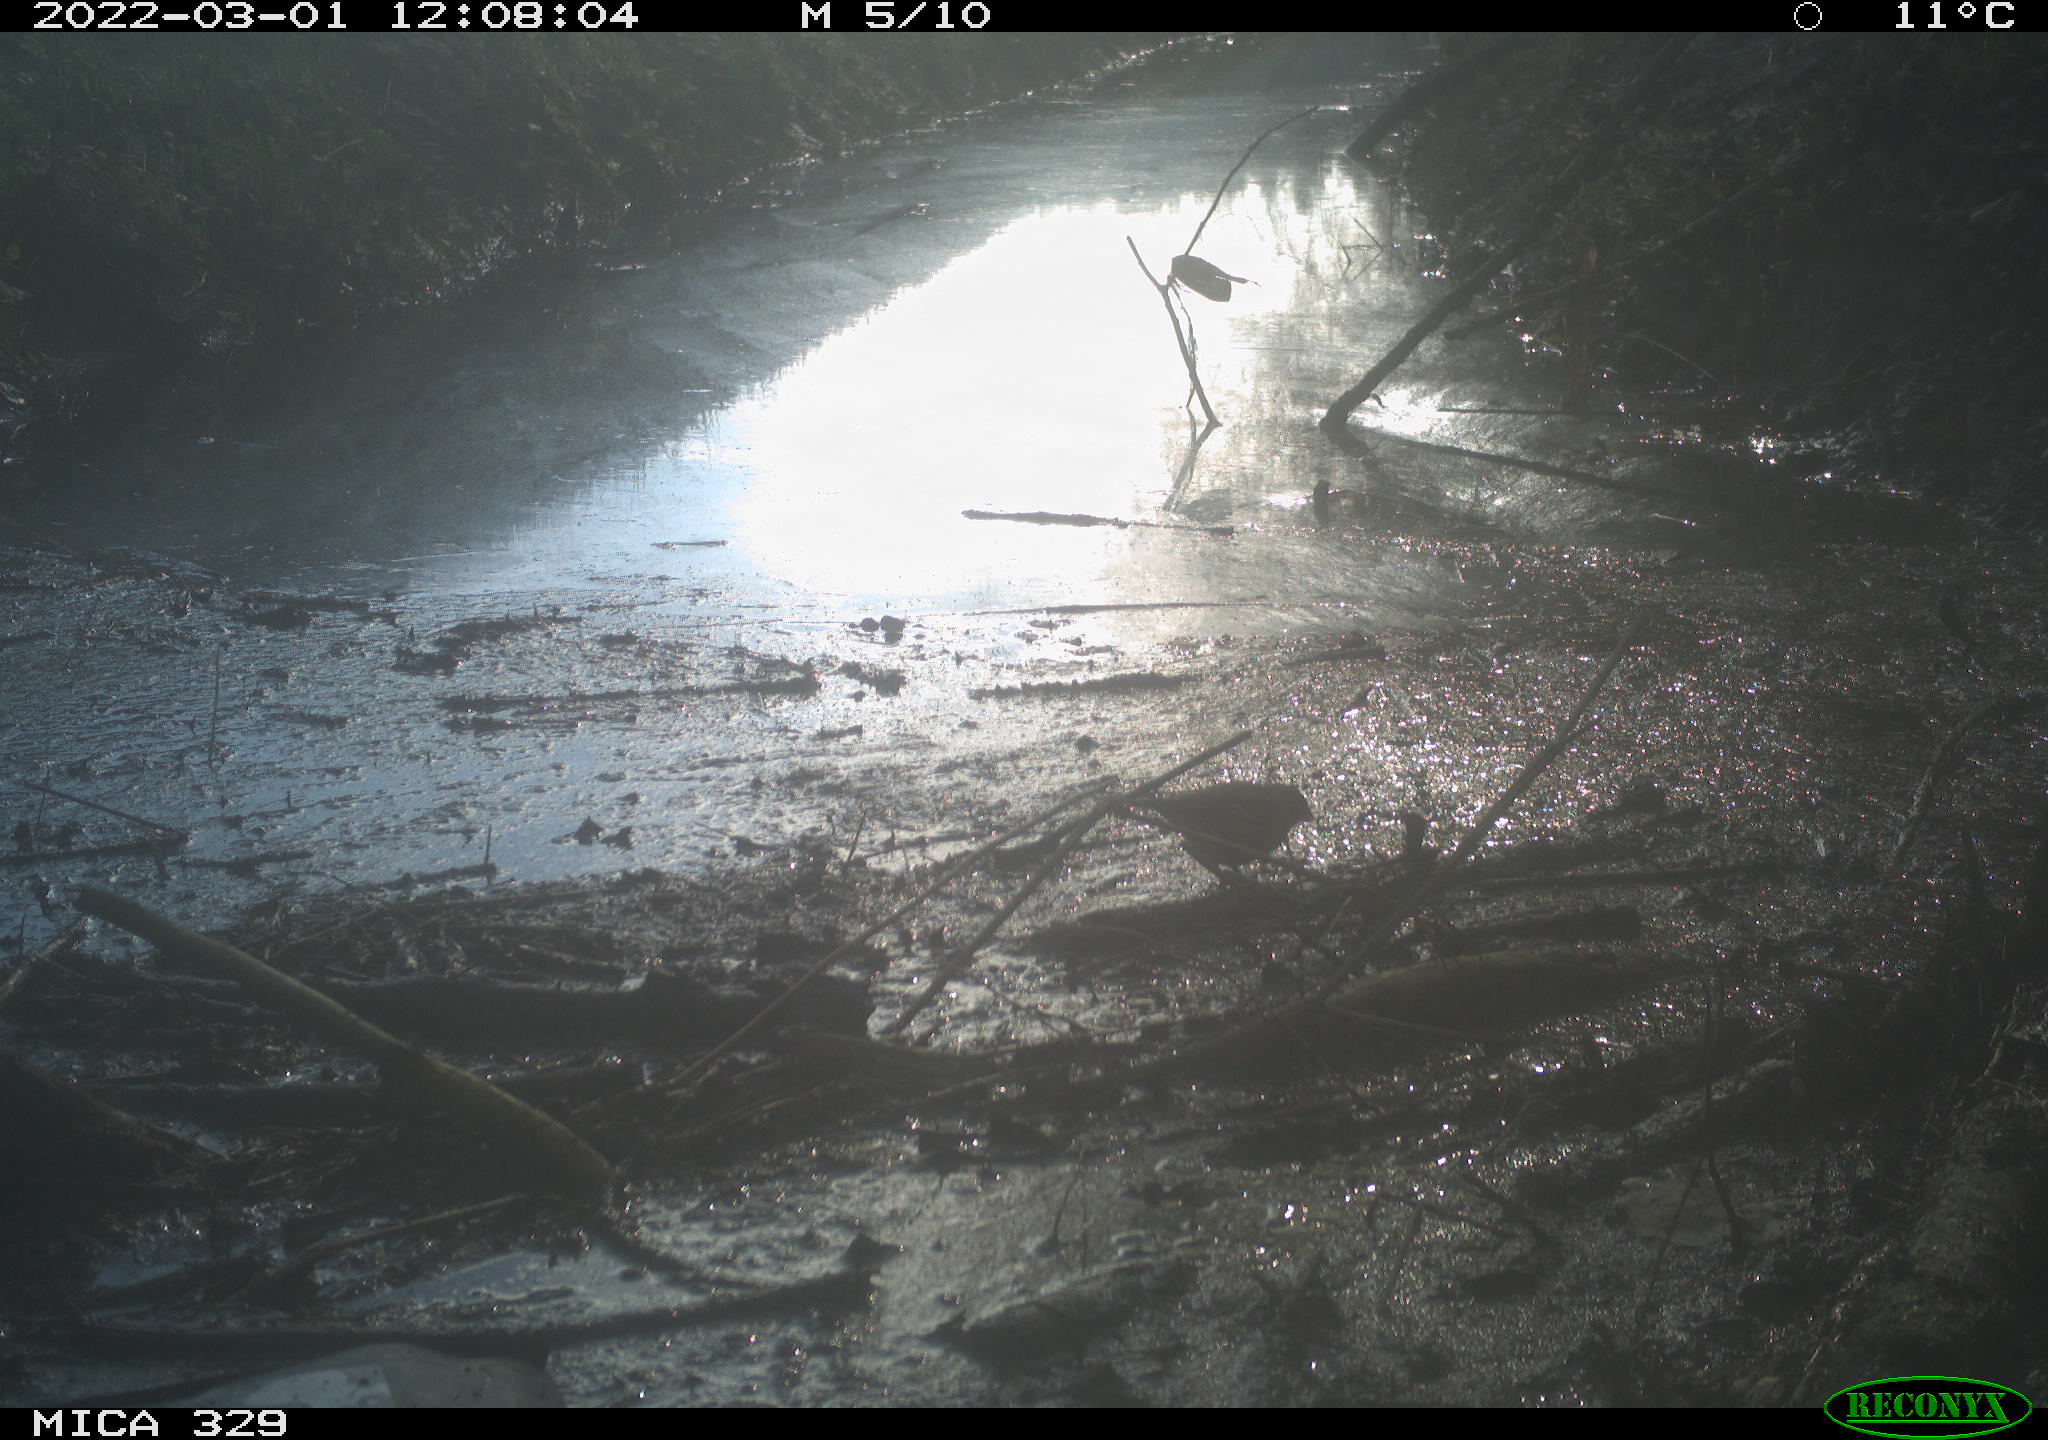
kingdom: Animalia
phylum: Chordata
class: Aves
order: Passeriformes
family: Fringillidae
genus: Fringilla
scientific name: Fringilla coelebs
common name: Common chaffinch
